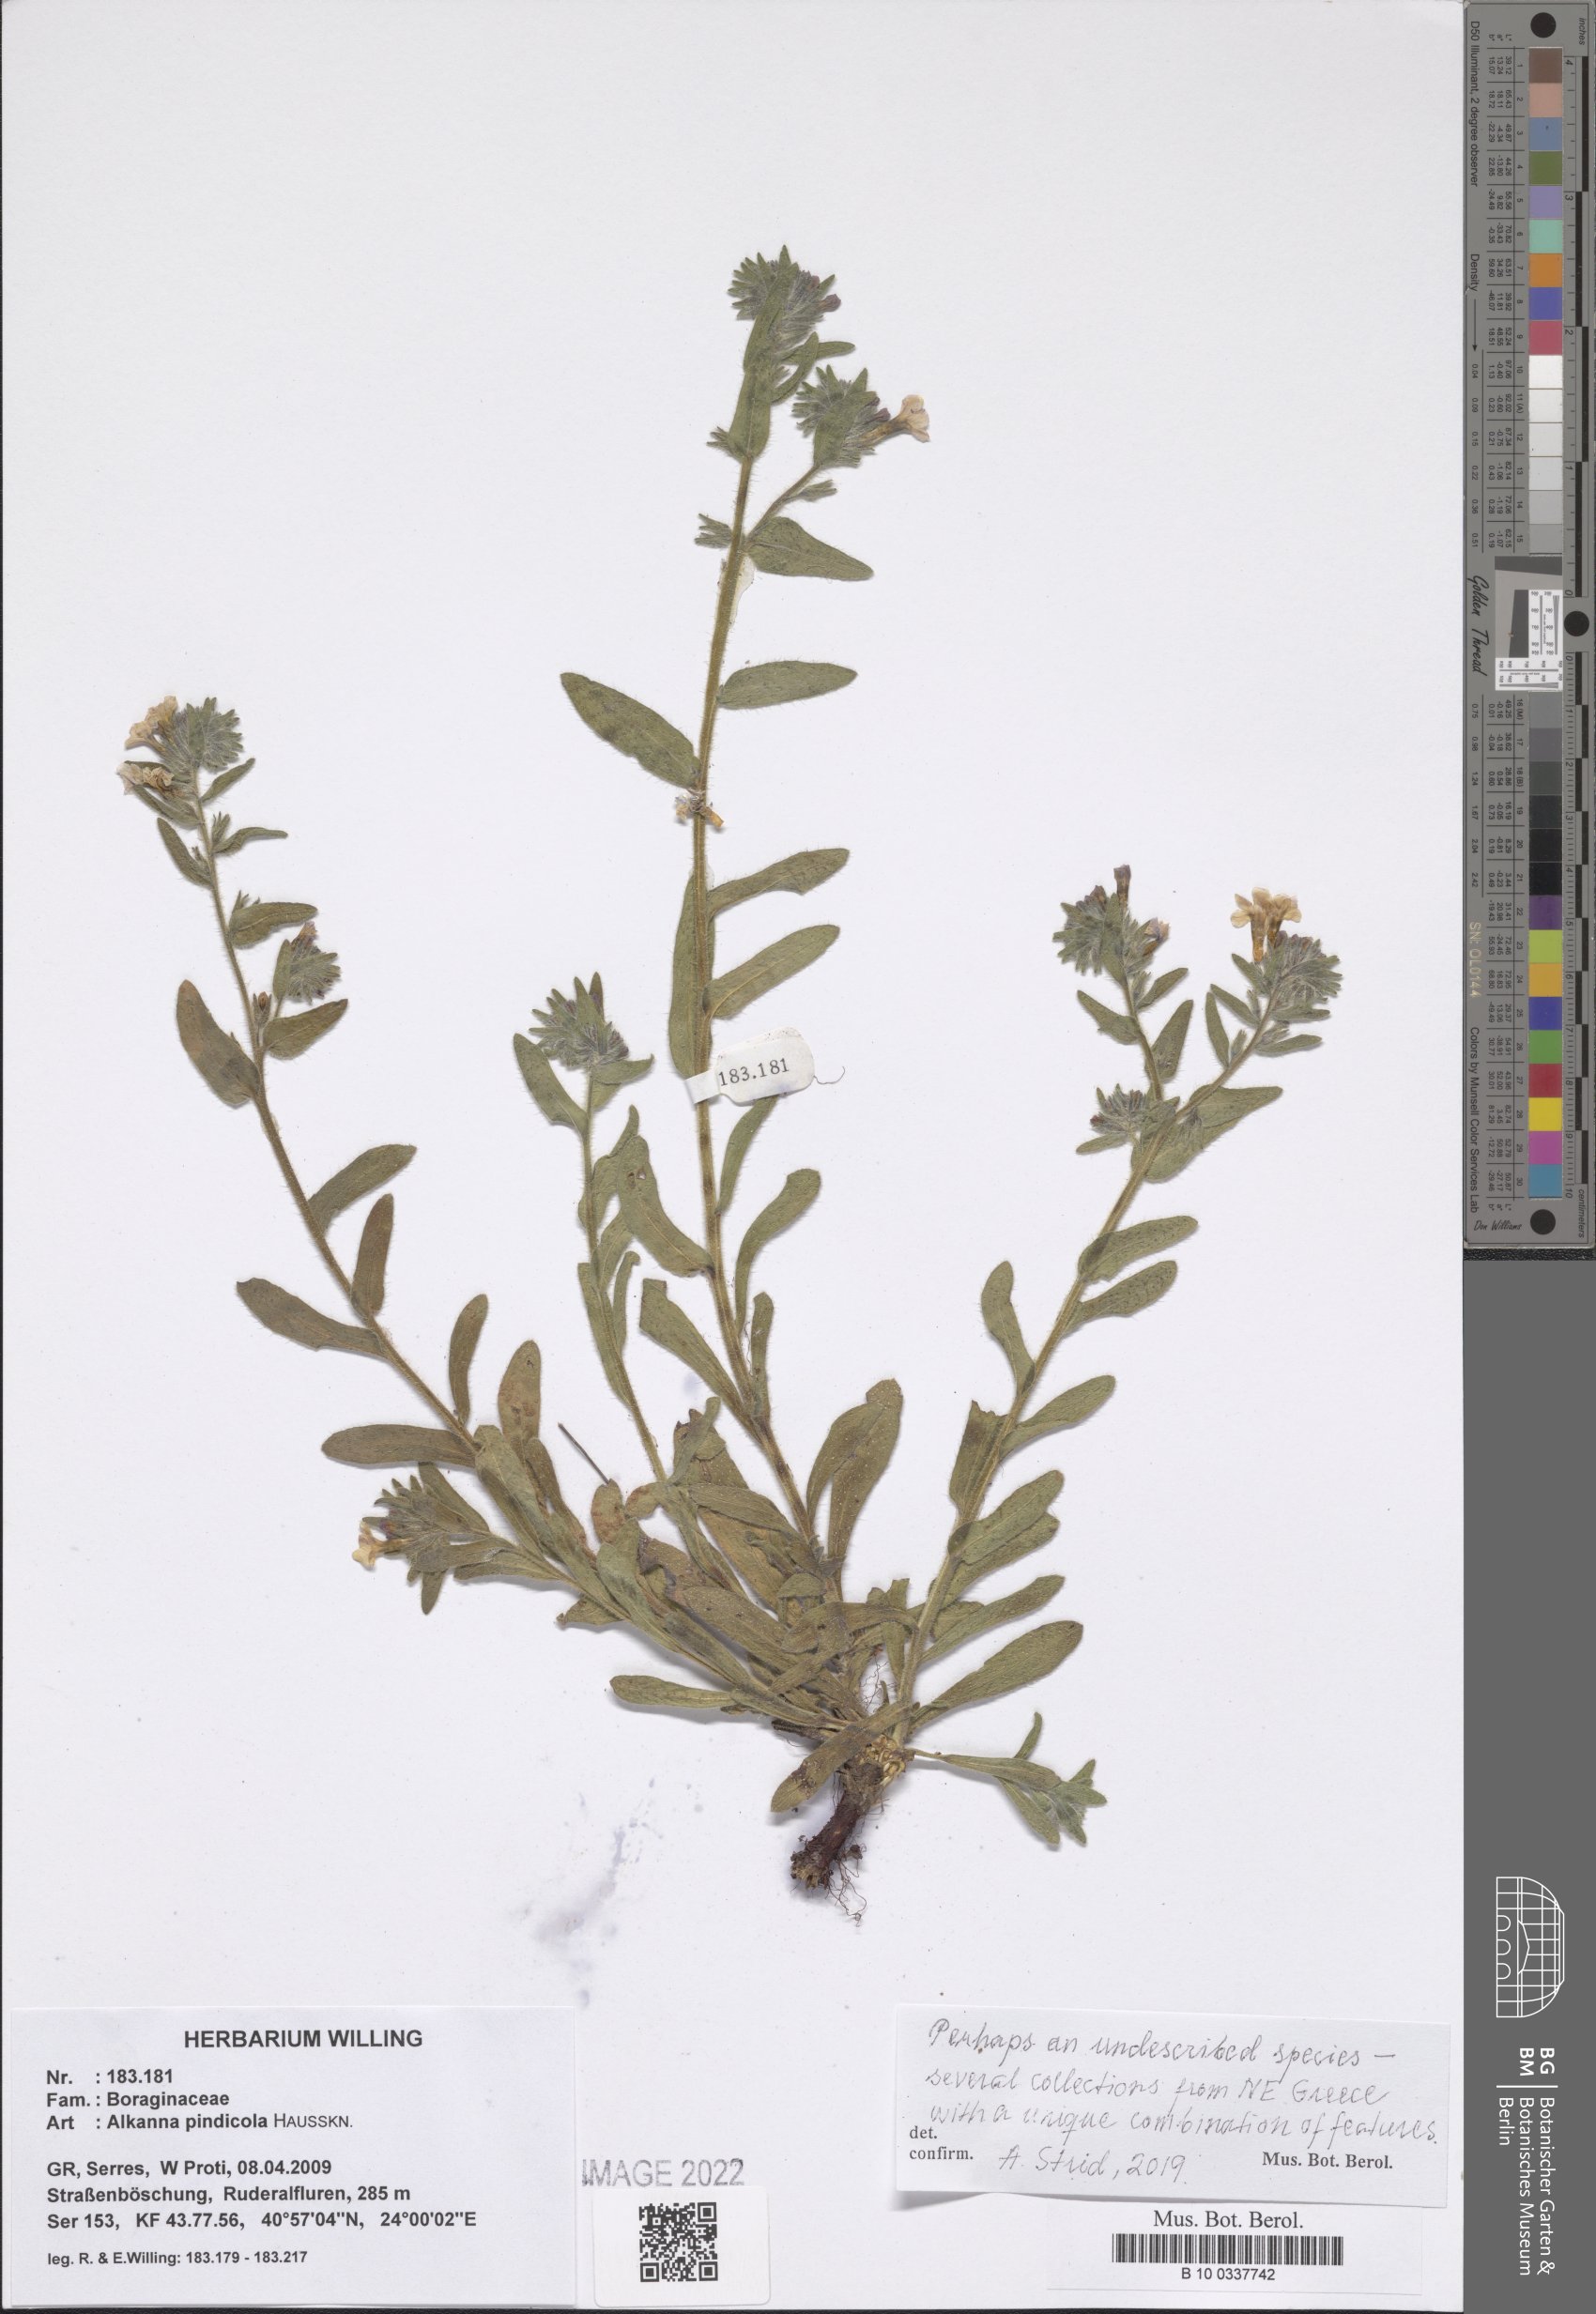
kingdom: Plantae
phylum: Tracheophyta
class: Magnoliopsida
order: Boraginales
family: Boraginaceae
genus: Alkanna
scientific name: Alkanna pindicola
